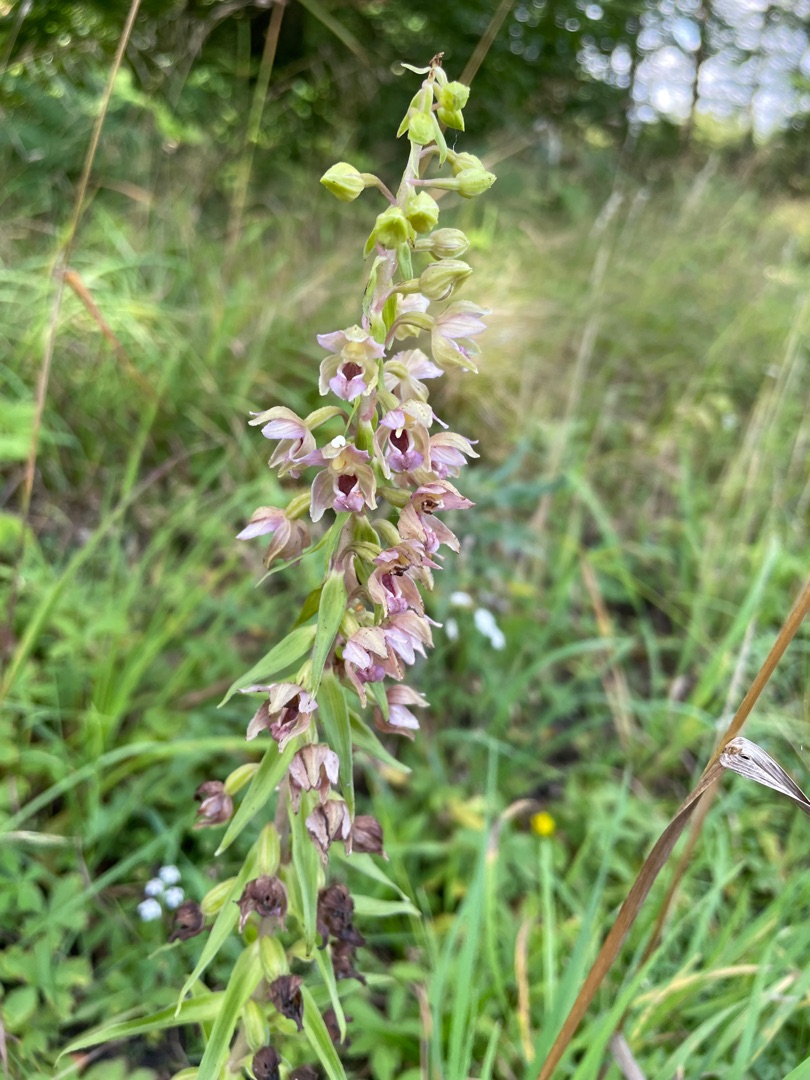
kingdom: Plantae
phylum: Tracheophyta
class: Liliopsida
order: Asparagales
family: Orchidaceae
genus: Epipactis
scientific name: Epipactis helleborine
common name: Skov-hullæbe (underart)
